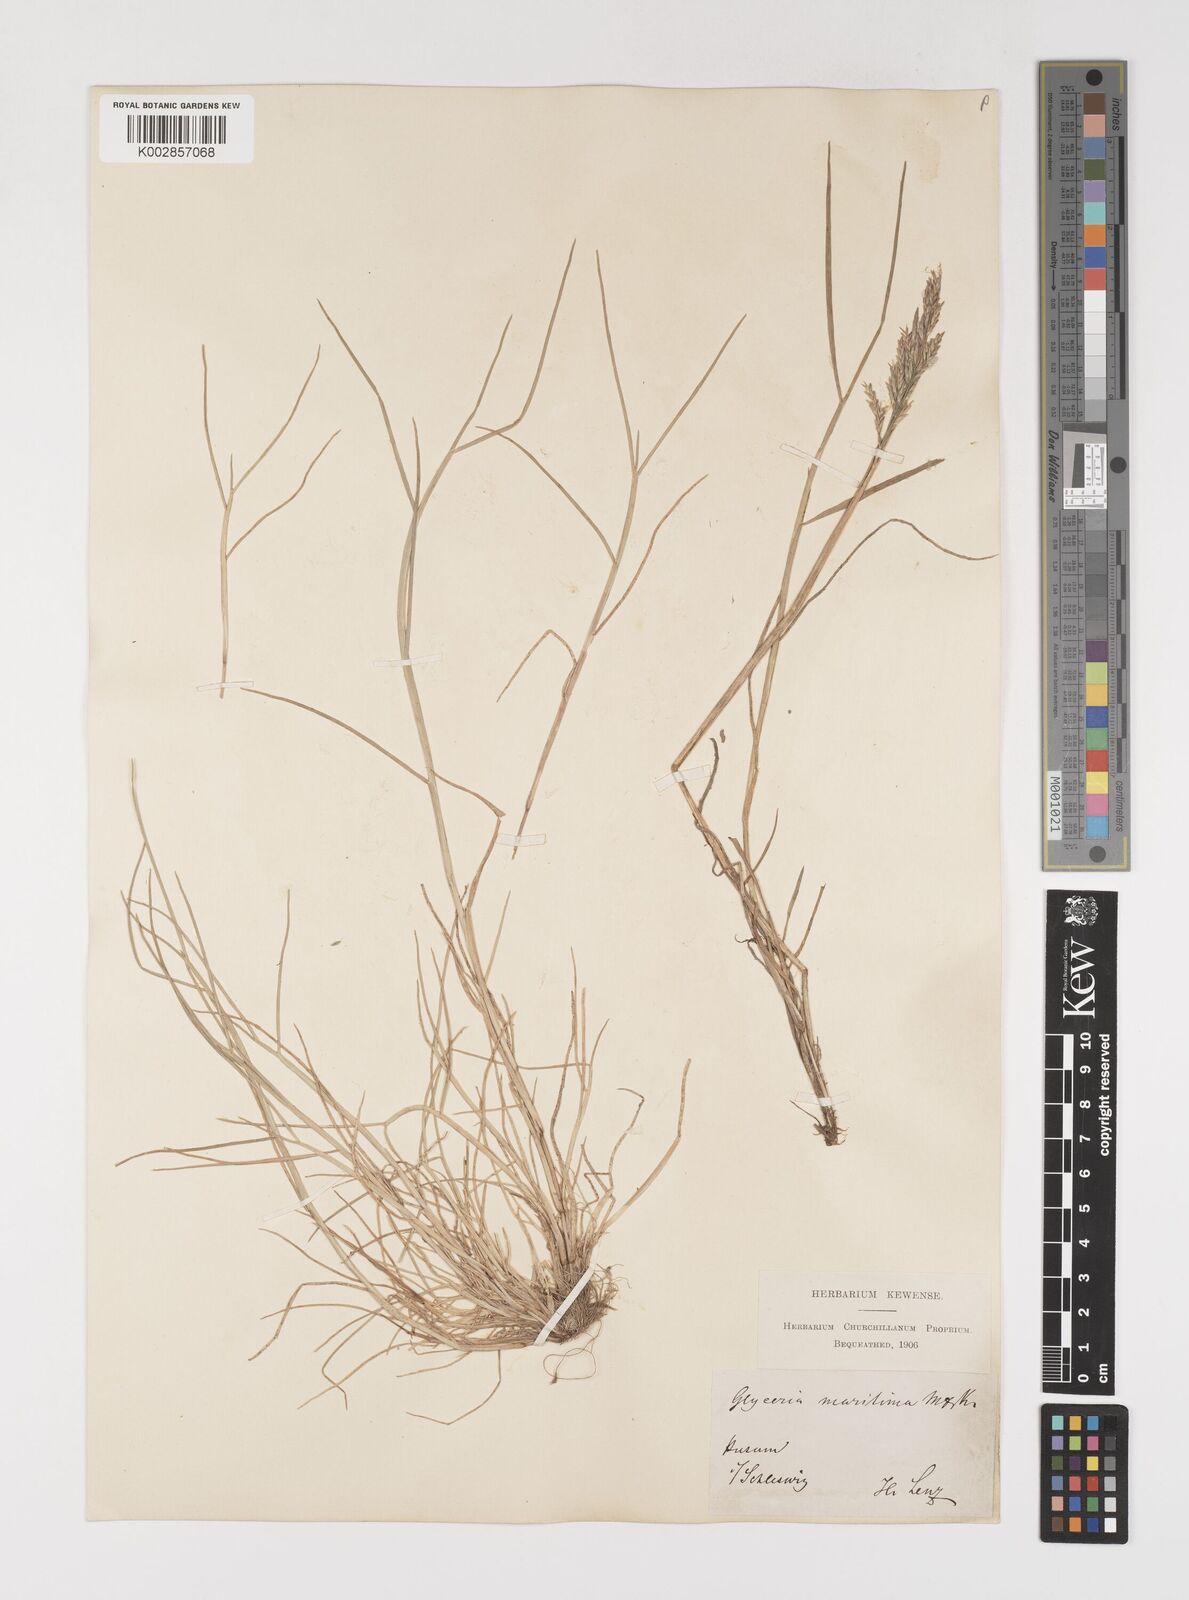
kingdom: Plantae
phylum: Tracheophyta
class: Liliopsida
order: Poales
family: Poaceae
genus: Puccinellia
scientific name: Puccinellia maritima
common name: Common saltmarsh grass
